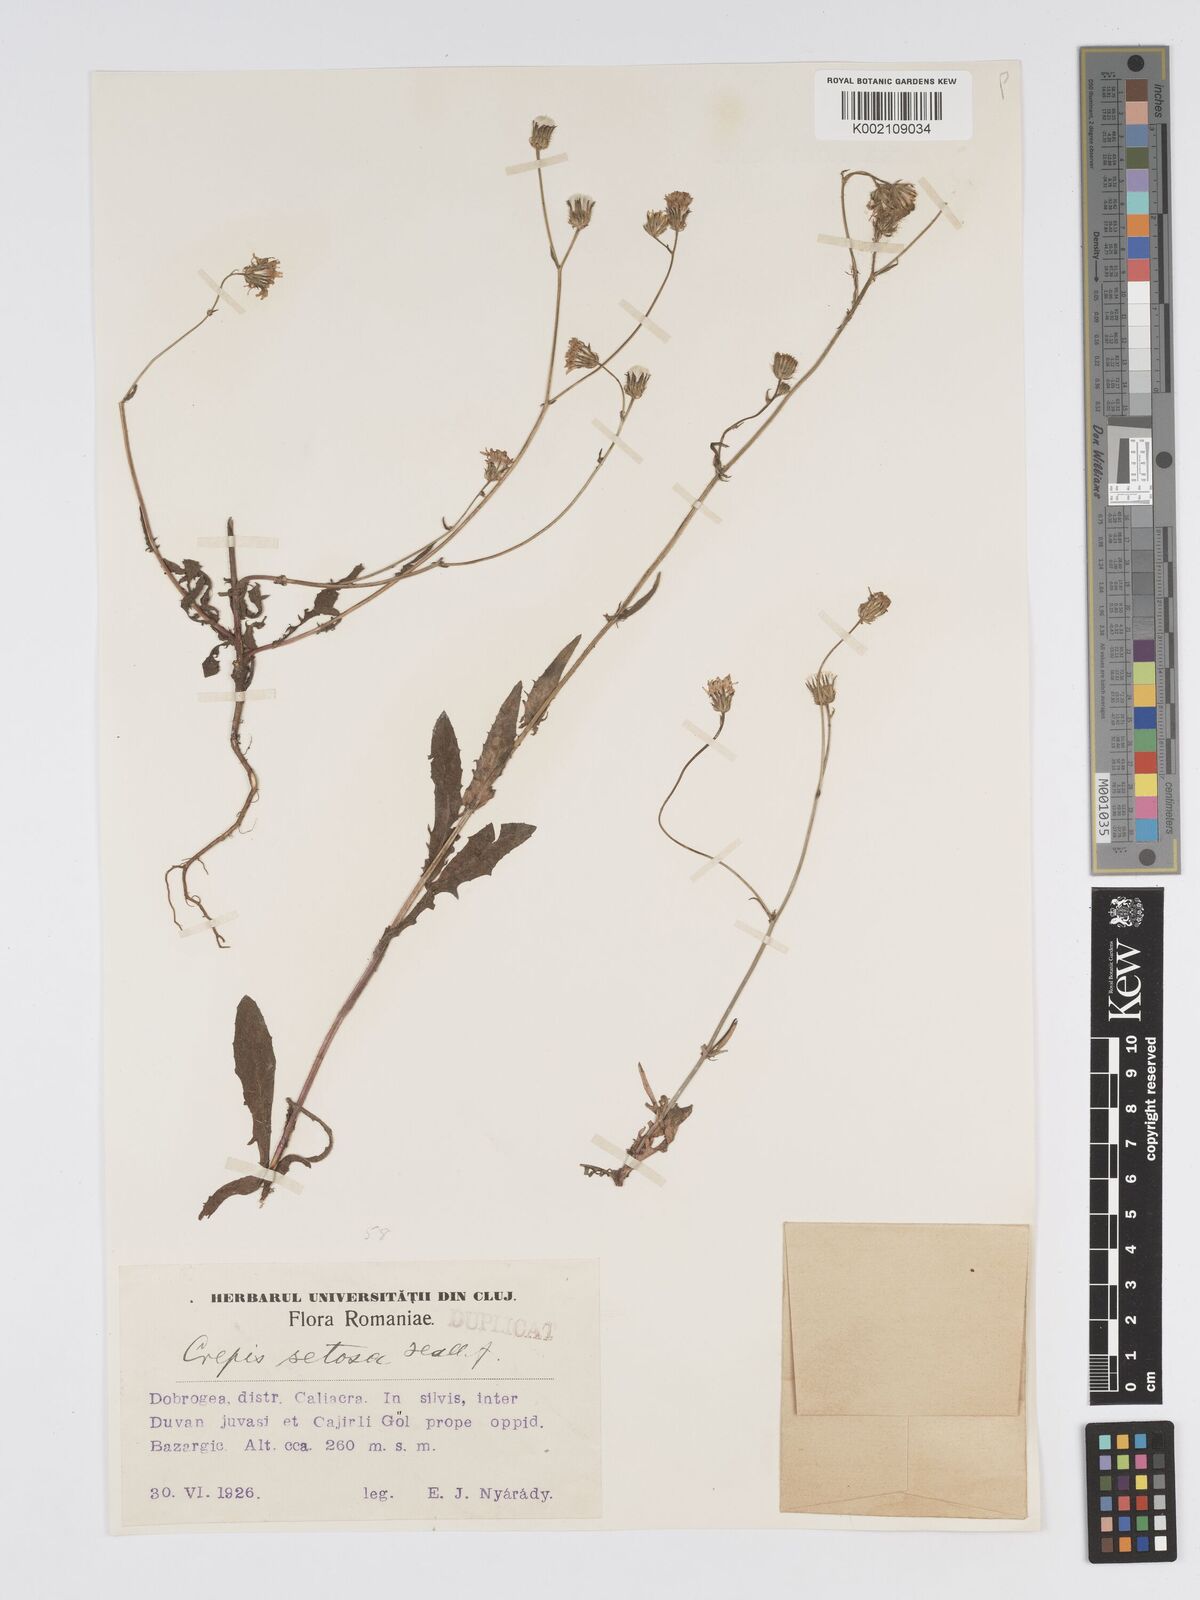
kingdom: Plantae
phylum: Tracheophyta
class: Magnoliopsida
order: Asterales
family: Asteraceae
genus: Crepis
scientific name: Crepis setosa
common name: Bristly hawk's-beard
